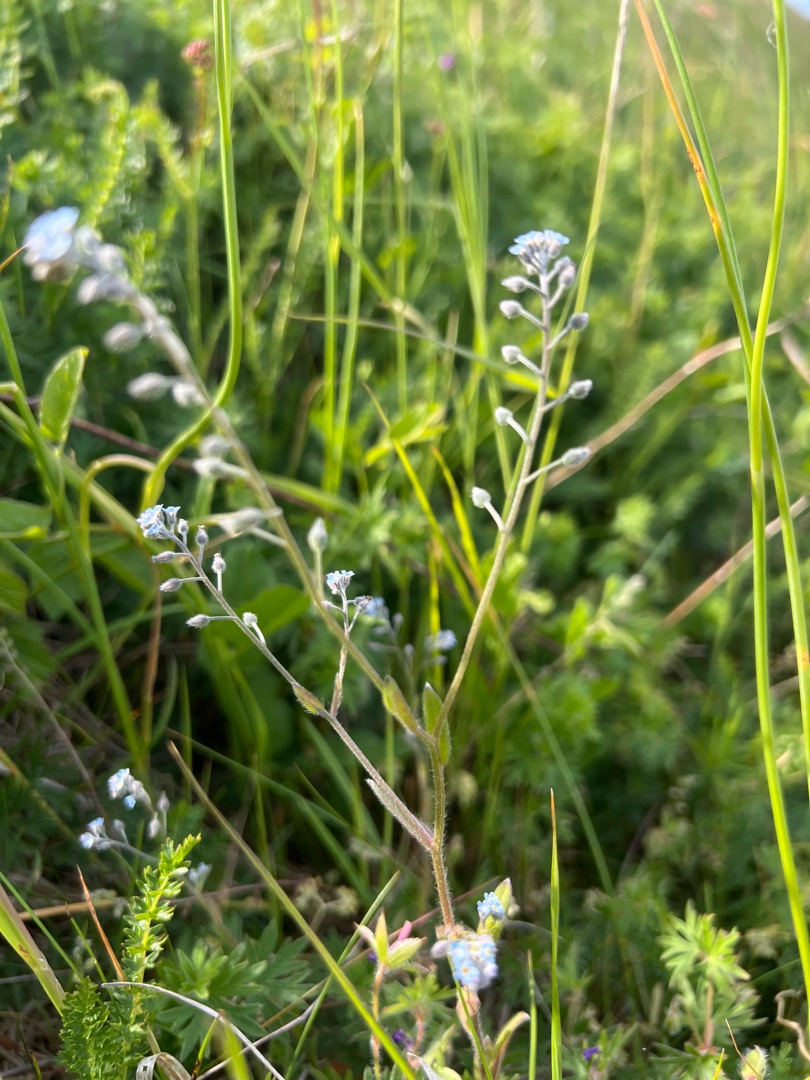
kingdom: Plantae
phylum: Tracheophyta
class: Magnoliopsida
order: Boraginales
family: Boraginaceae
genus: Myosotis
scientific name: Myosotis ramosissima
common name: Bakke-forglemmigej
